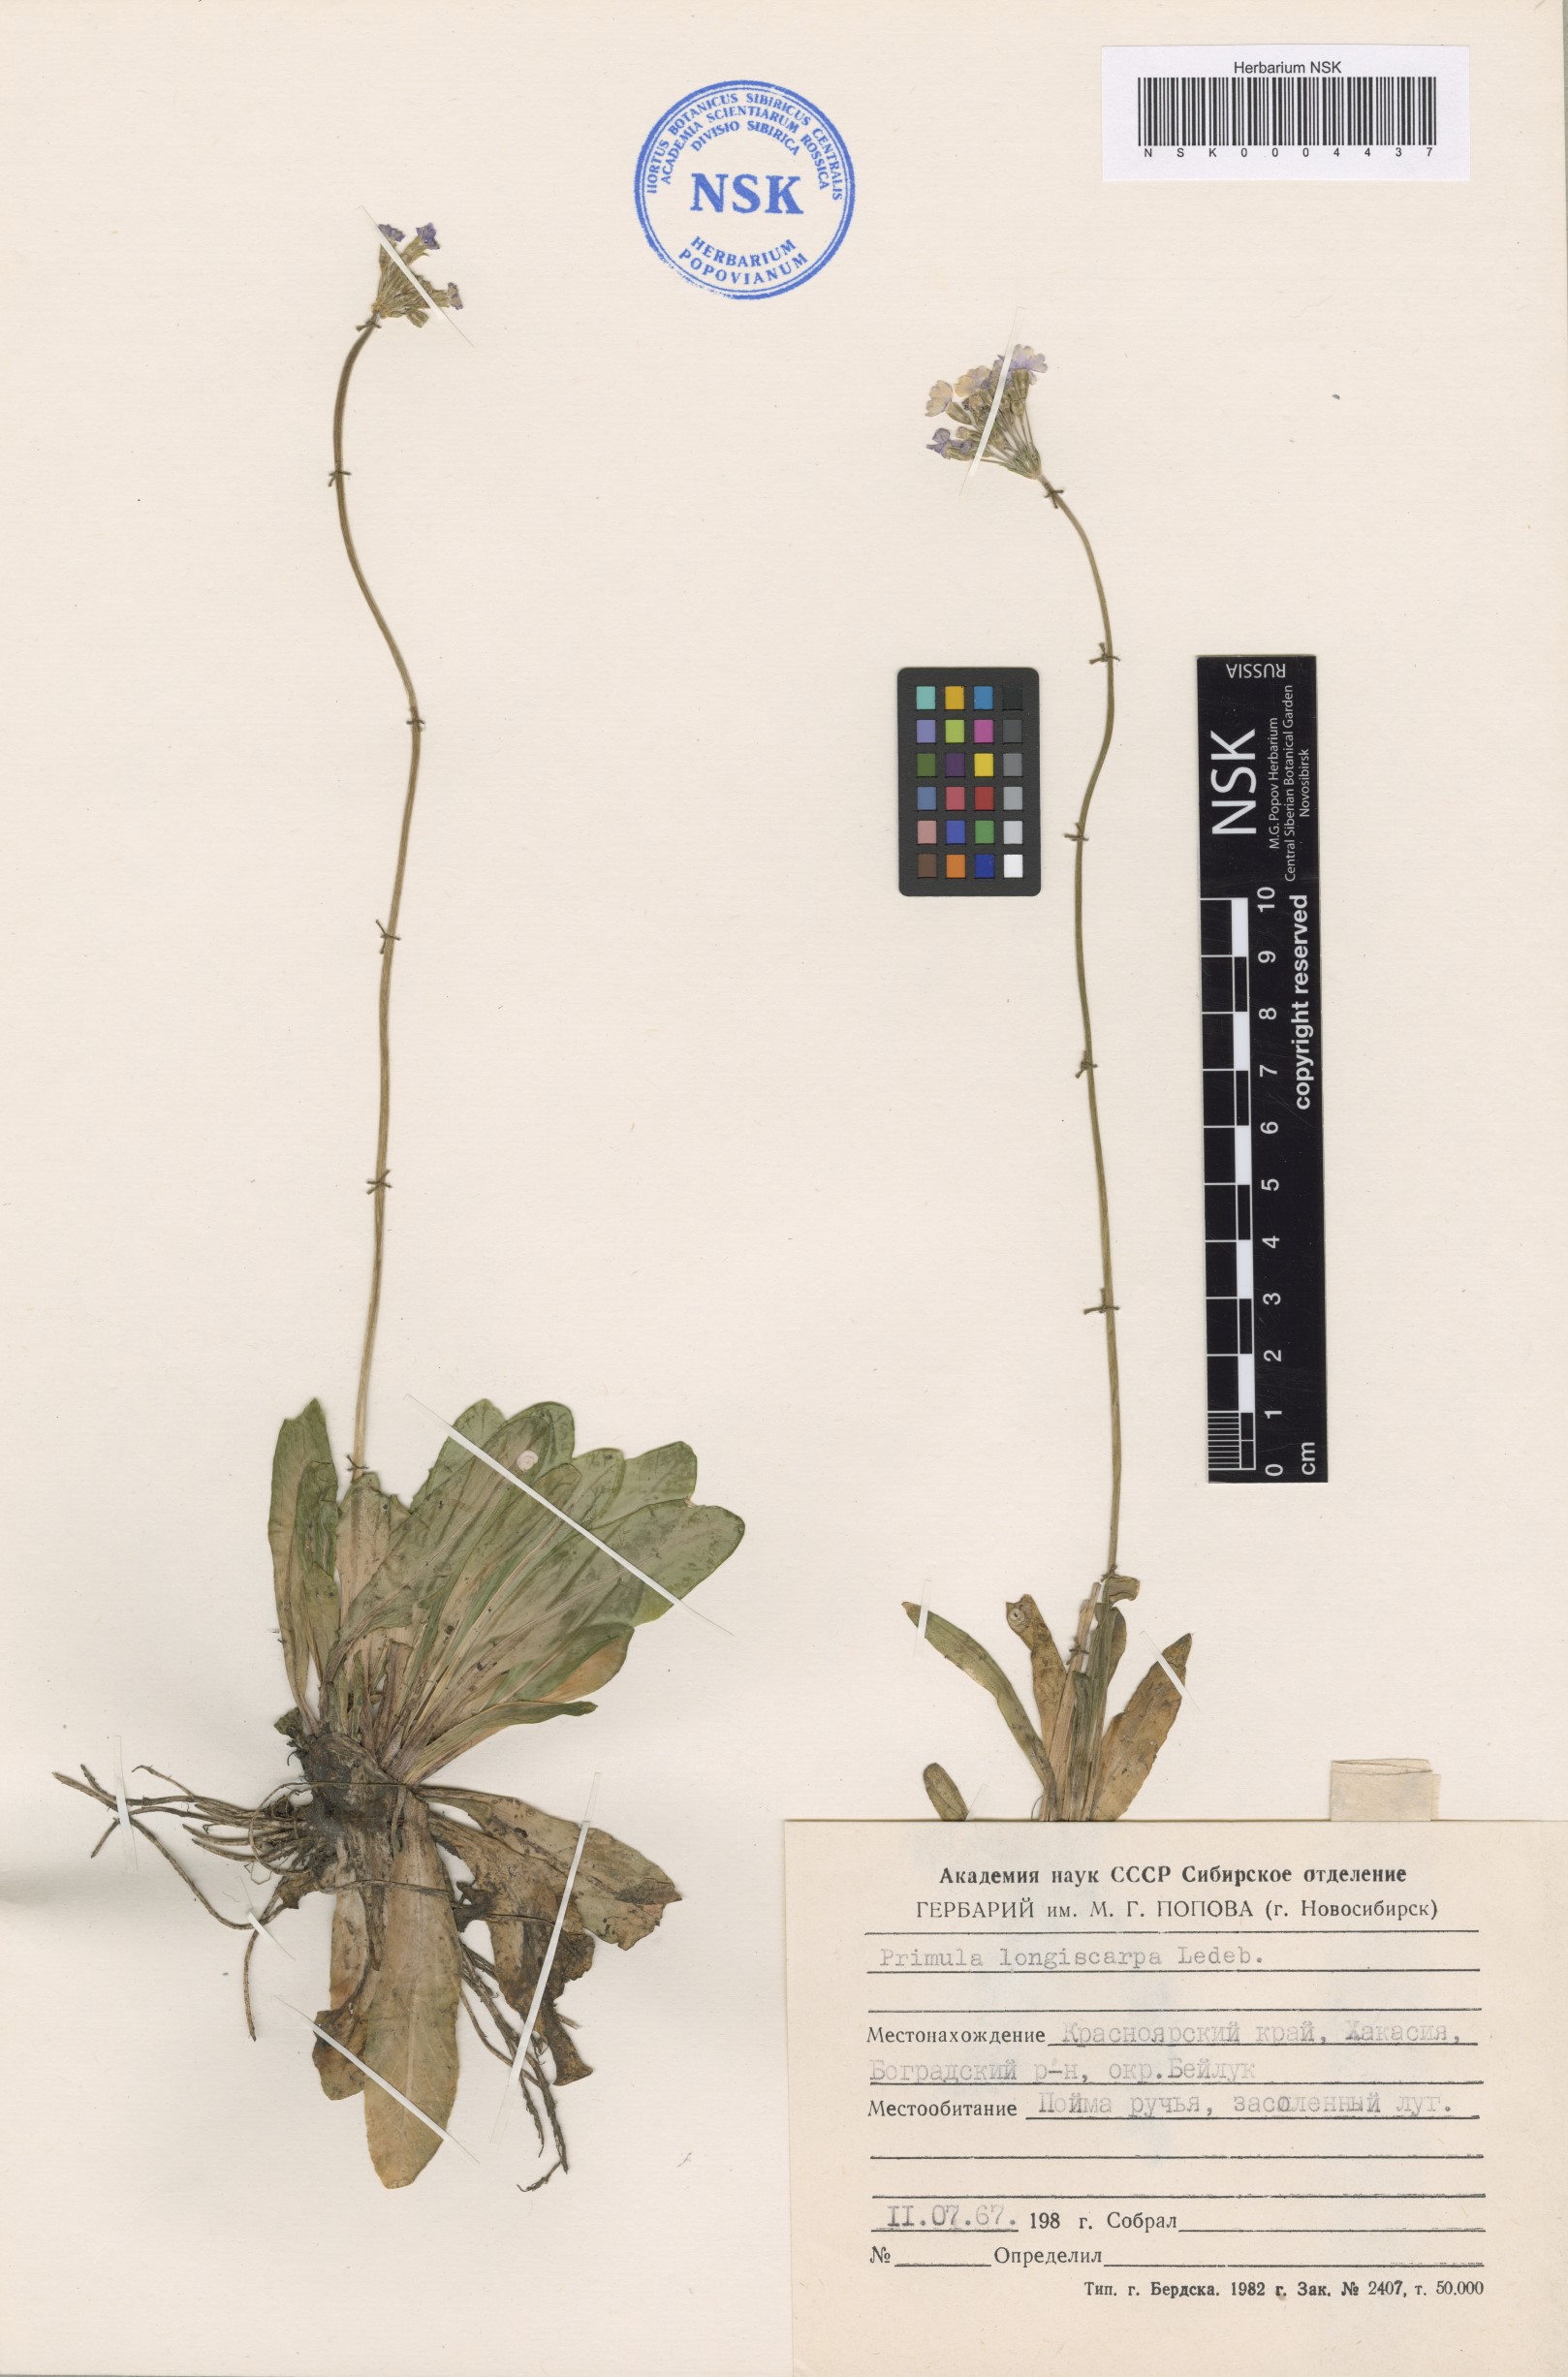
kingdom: Plantae
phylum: Tracheophyta
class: Magnoliopsida
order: Ericales
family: Primulaceae
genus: Primula
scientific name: Primula longiscapa
